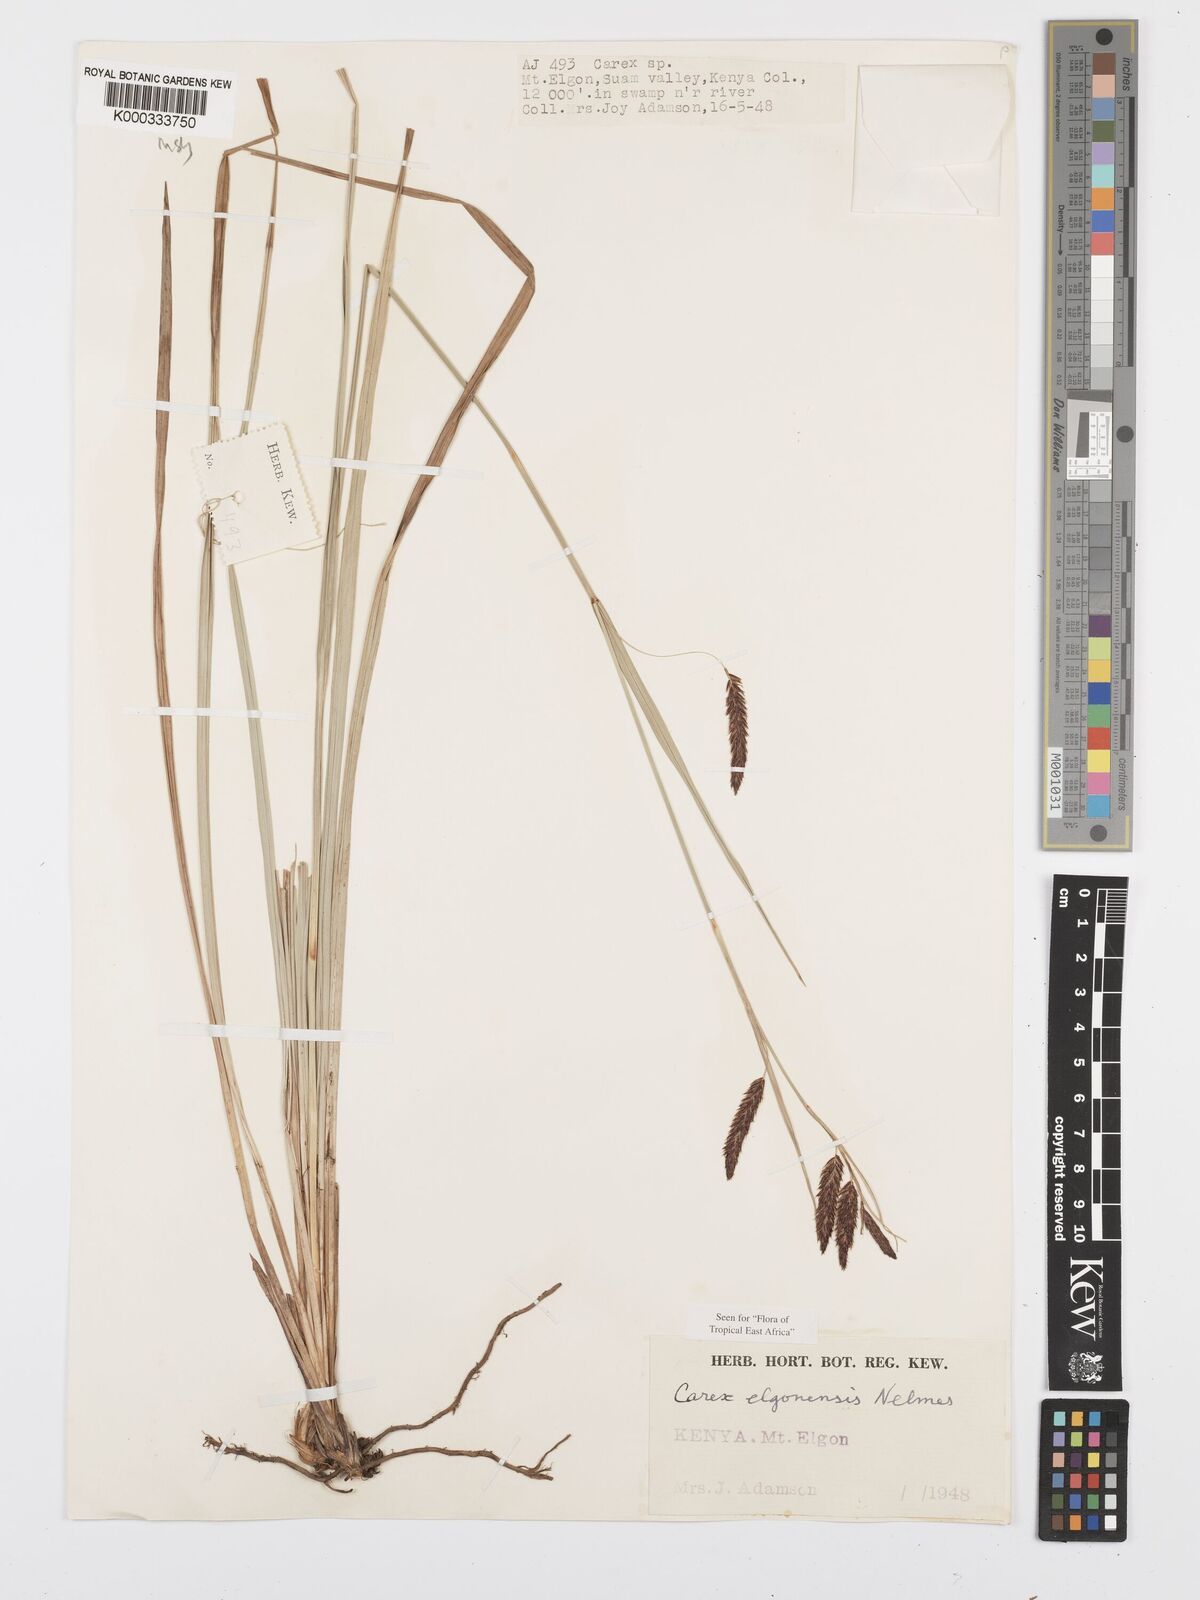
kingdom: Plantae
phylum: Tracheophyta
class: Liliopsida
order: Poales
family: Cyperaceae
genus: Carex
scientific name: Carex elgonensis
